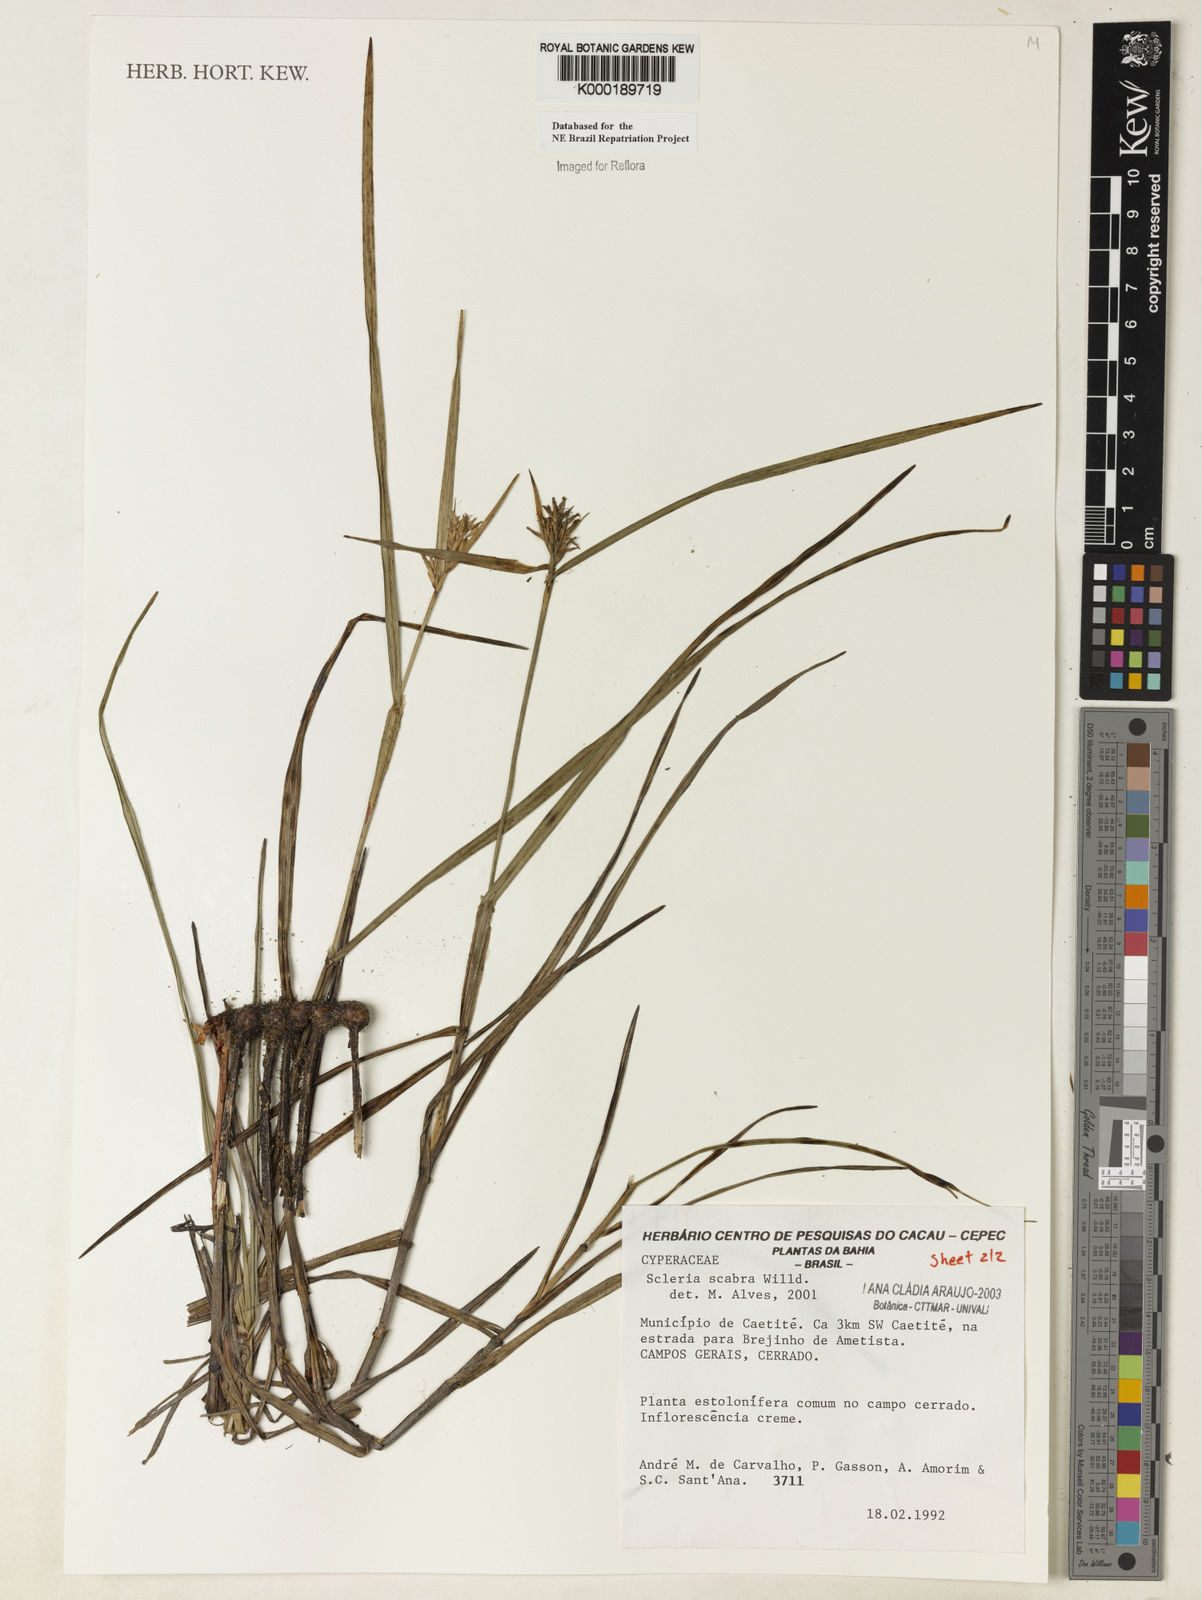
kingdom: Plantae
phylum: Tracheophyta
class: Liliopsida
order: Poales
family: Cyperaceae
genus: Scleria
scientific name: Scleria scabra
